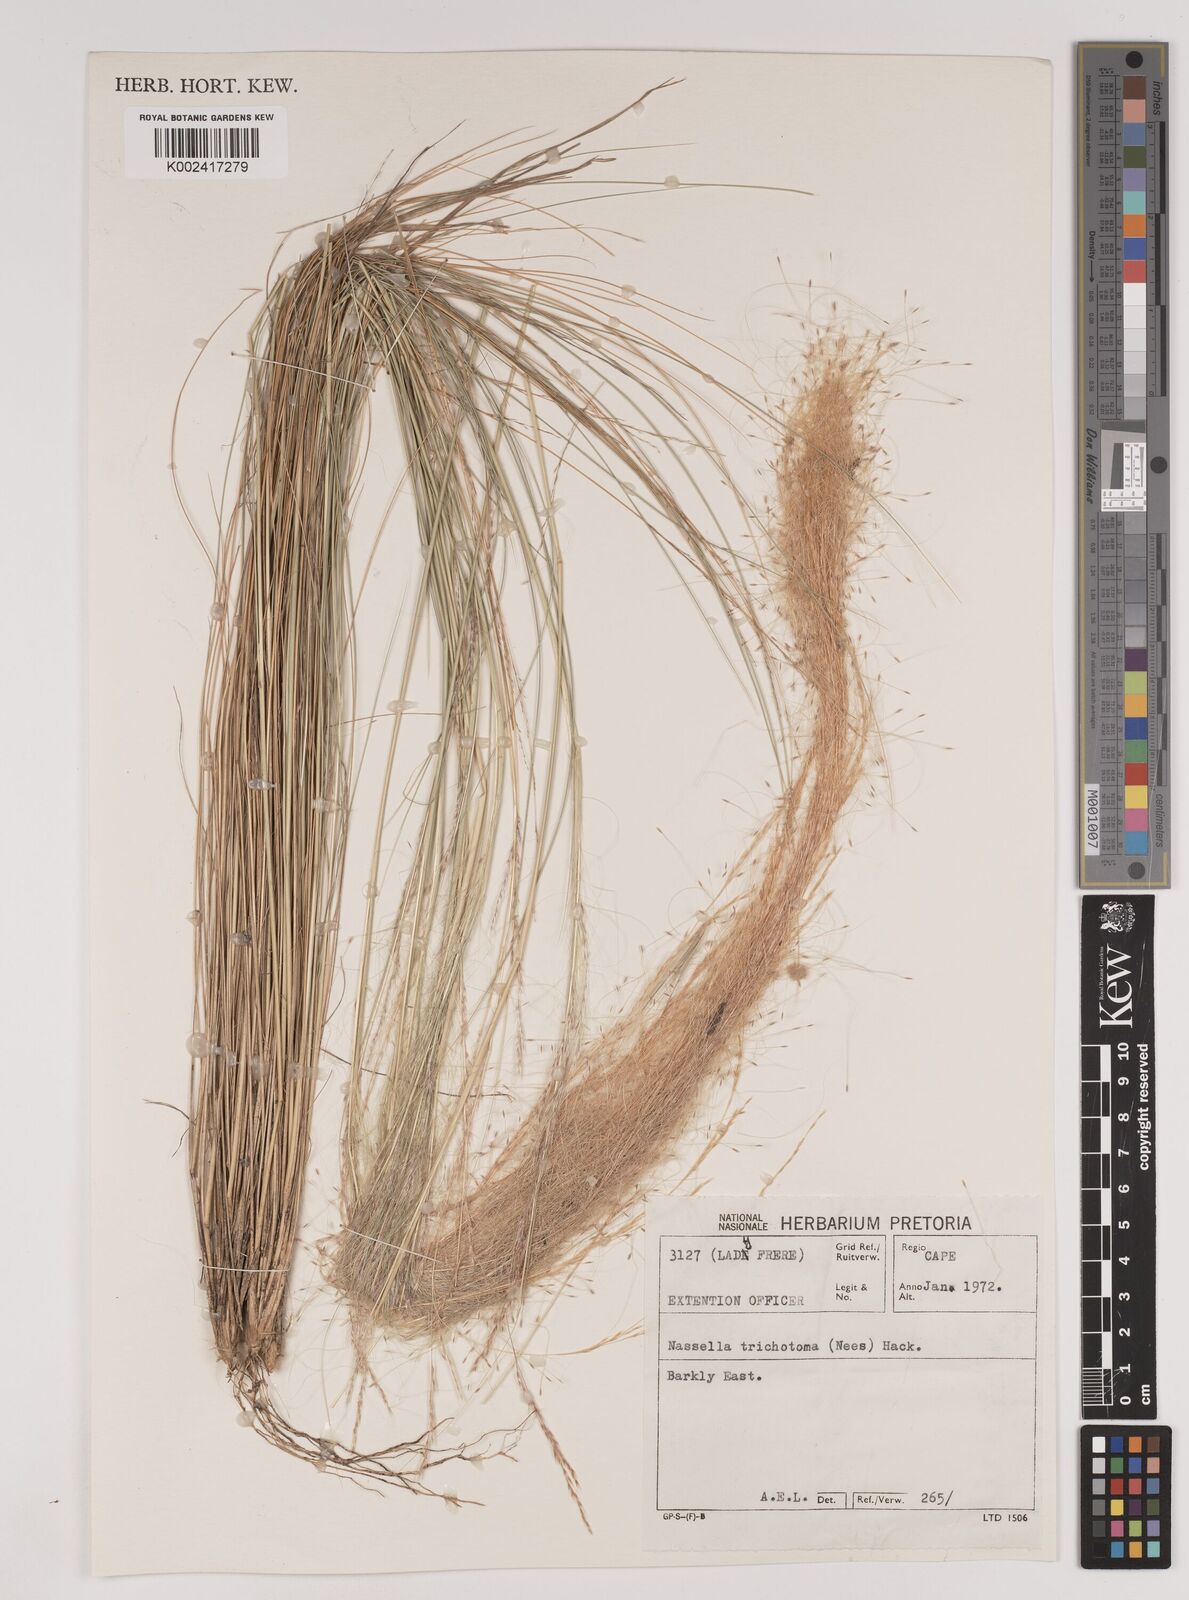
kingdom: Plantae
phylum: Tracheophyta
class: Liliopsida
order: Poales
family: Poaceae
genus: Nassella
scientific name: Nassella trichotoma
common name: Serrated tussock grass
